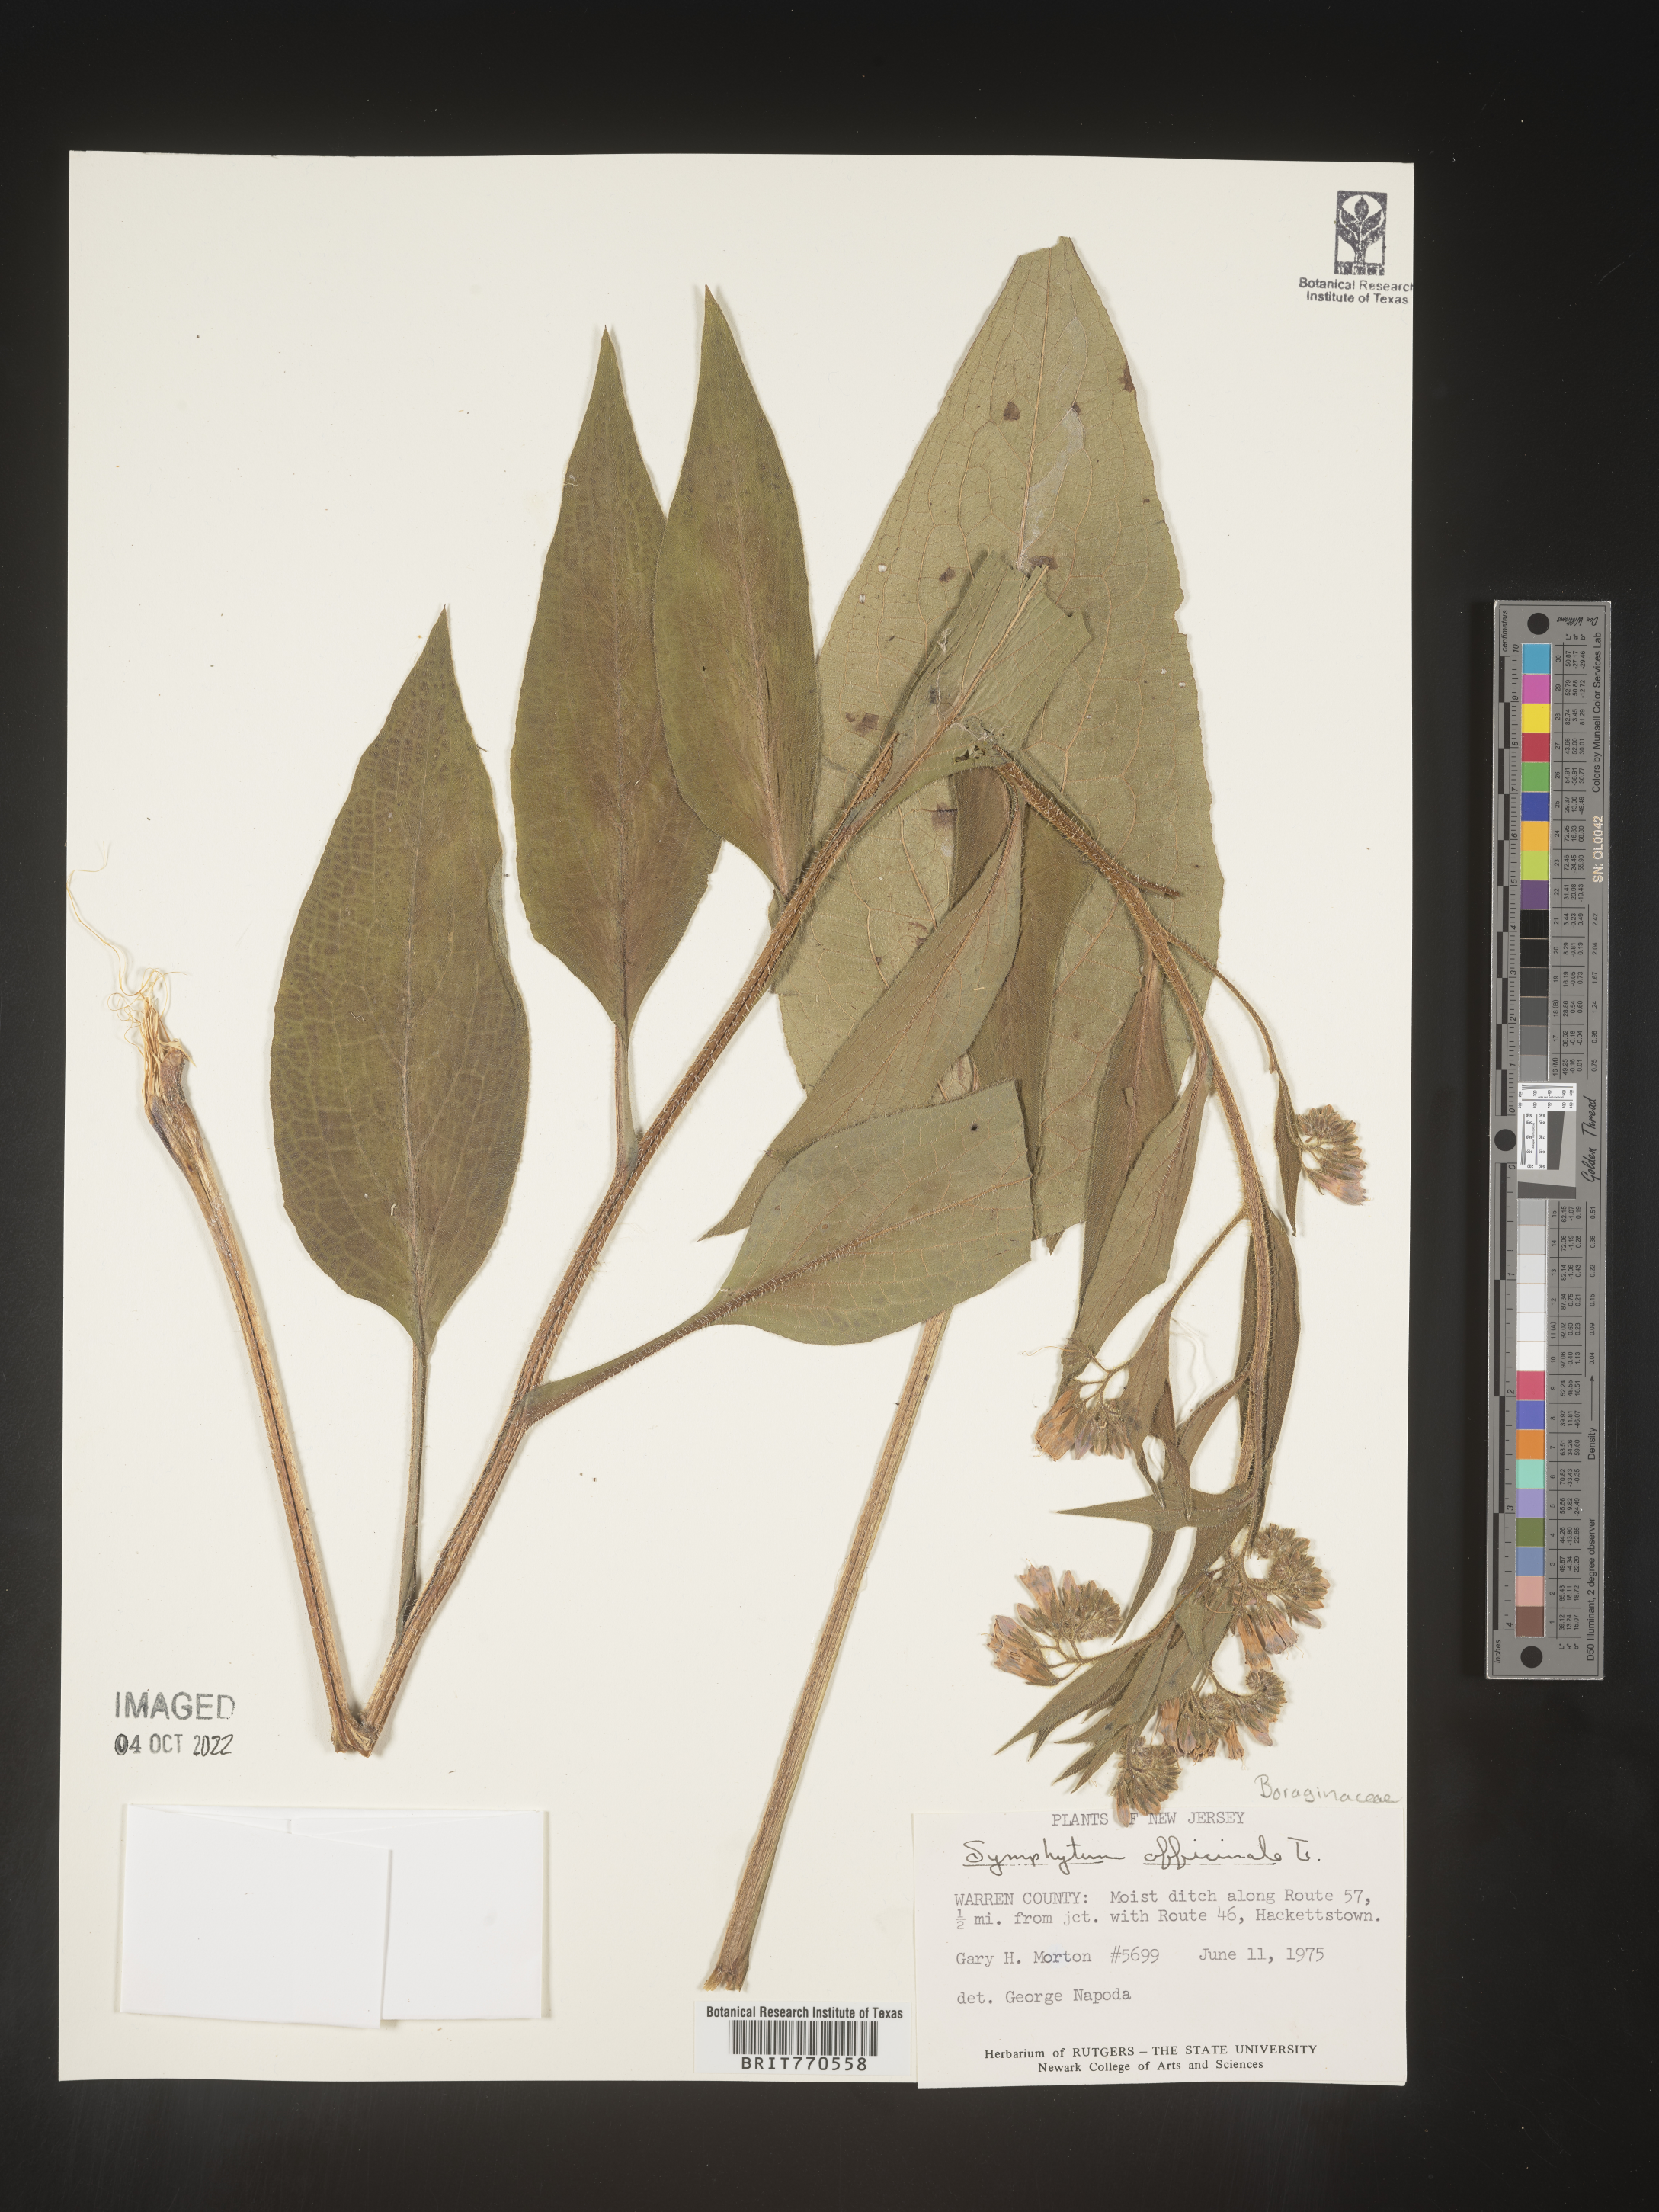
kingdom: Plantae
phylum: Tracheophyta
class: Magnoliopsida
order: Boraginales
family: Boraginaceae
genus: Symphytum
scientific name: Symphytum
